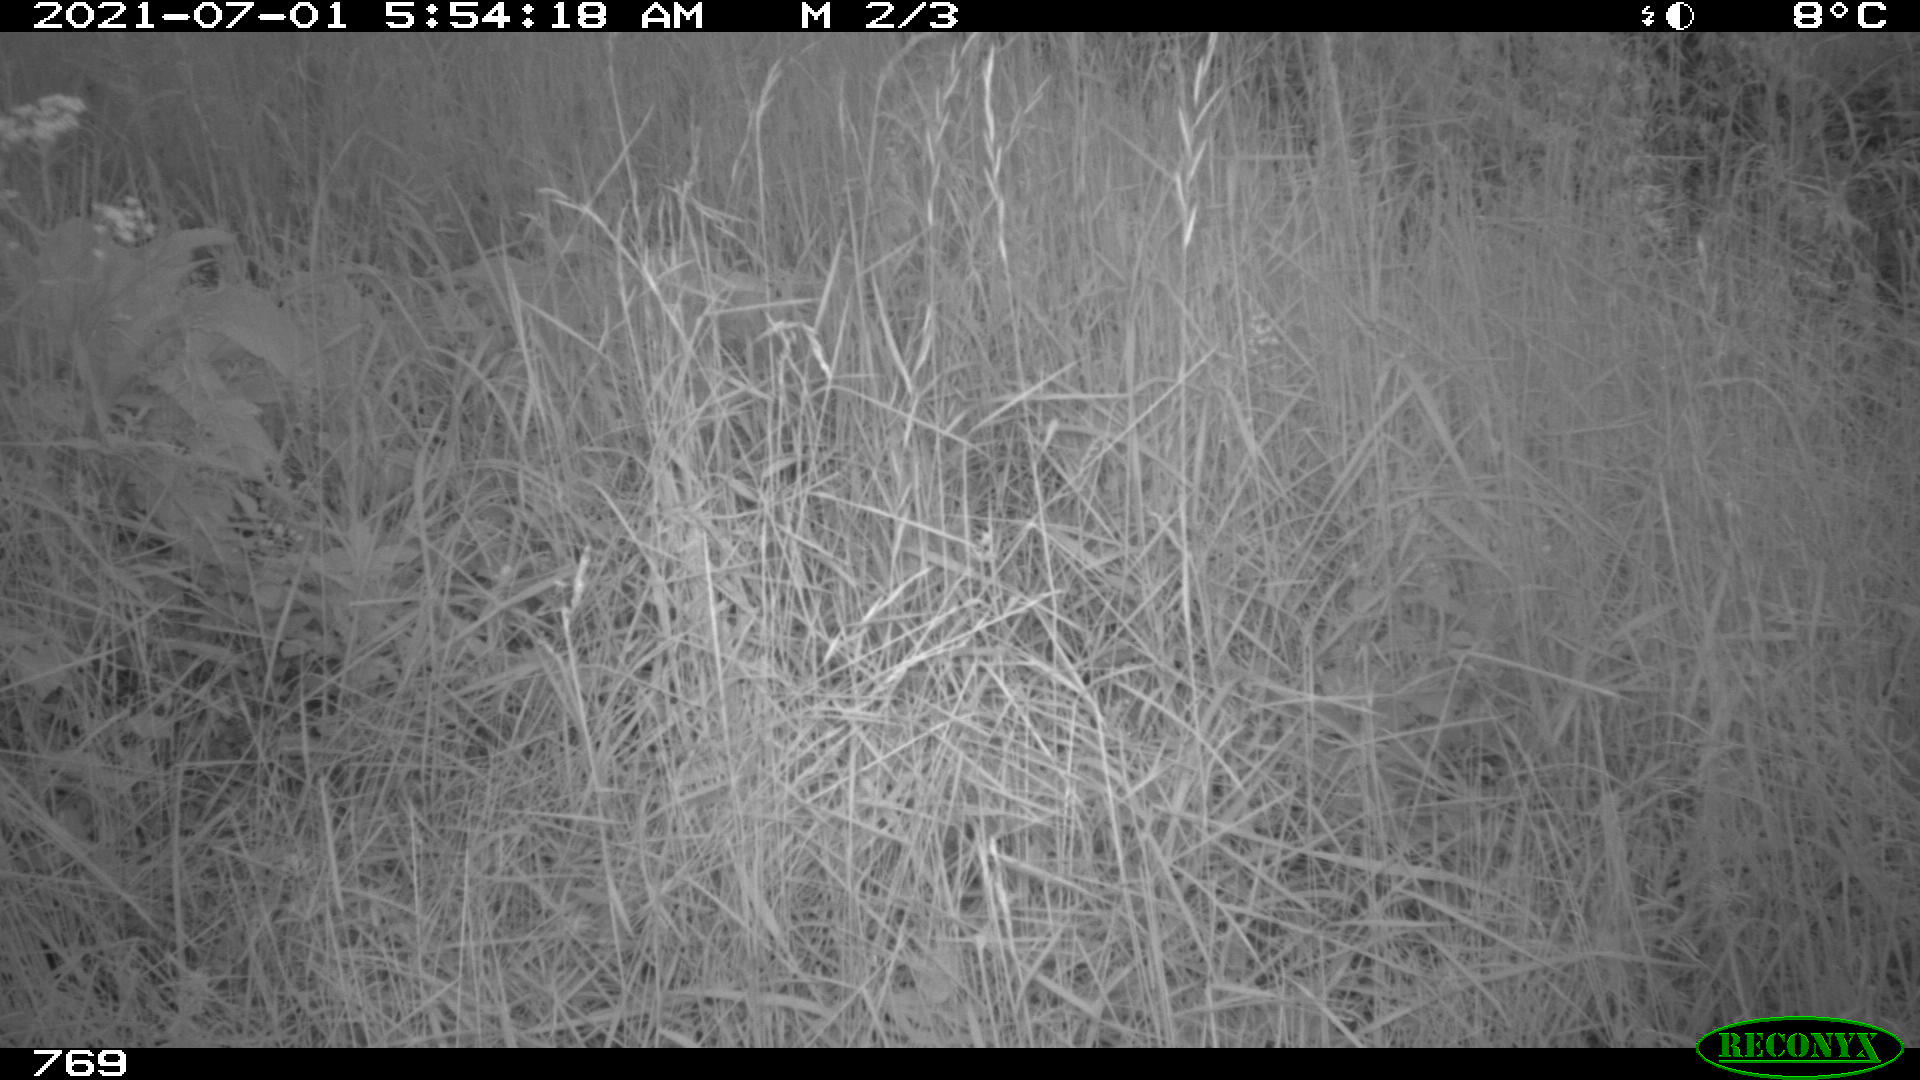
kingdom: Animalia
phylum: Chordata
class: Mammalia
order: Artiodactyla
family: Cervidae
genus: Capreolus
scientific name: Capreolus capreolus
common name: Western roe deer
